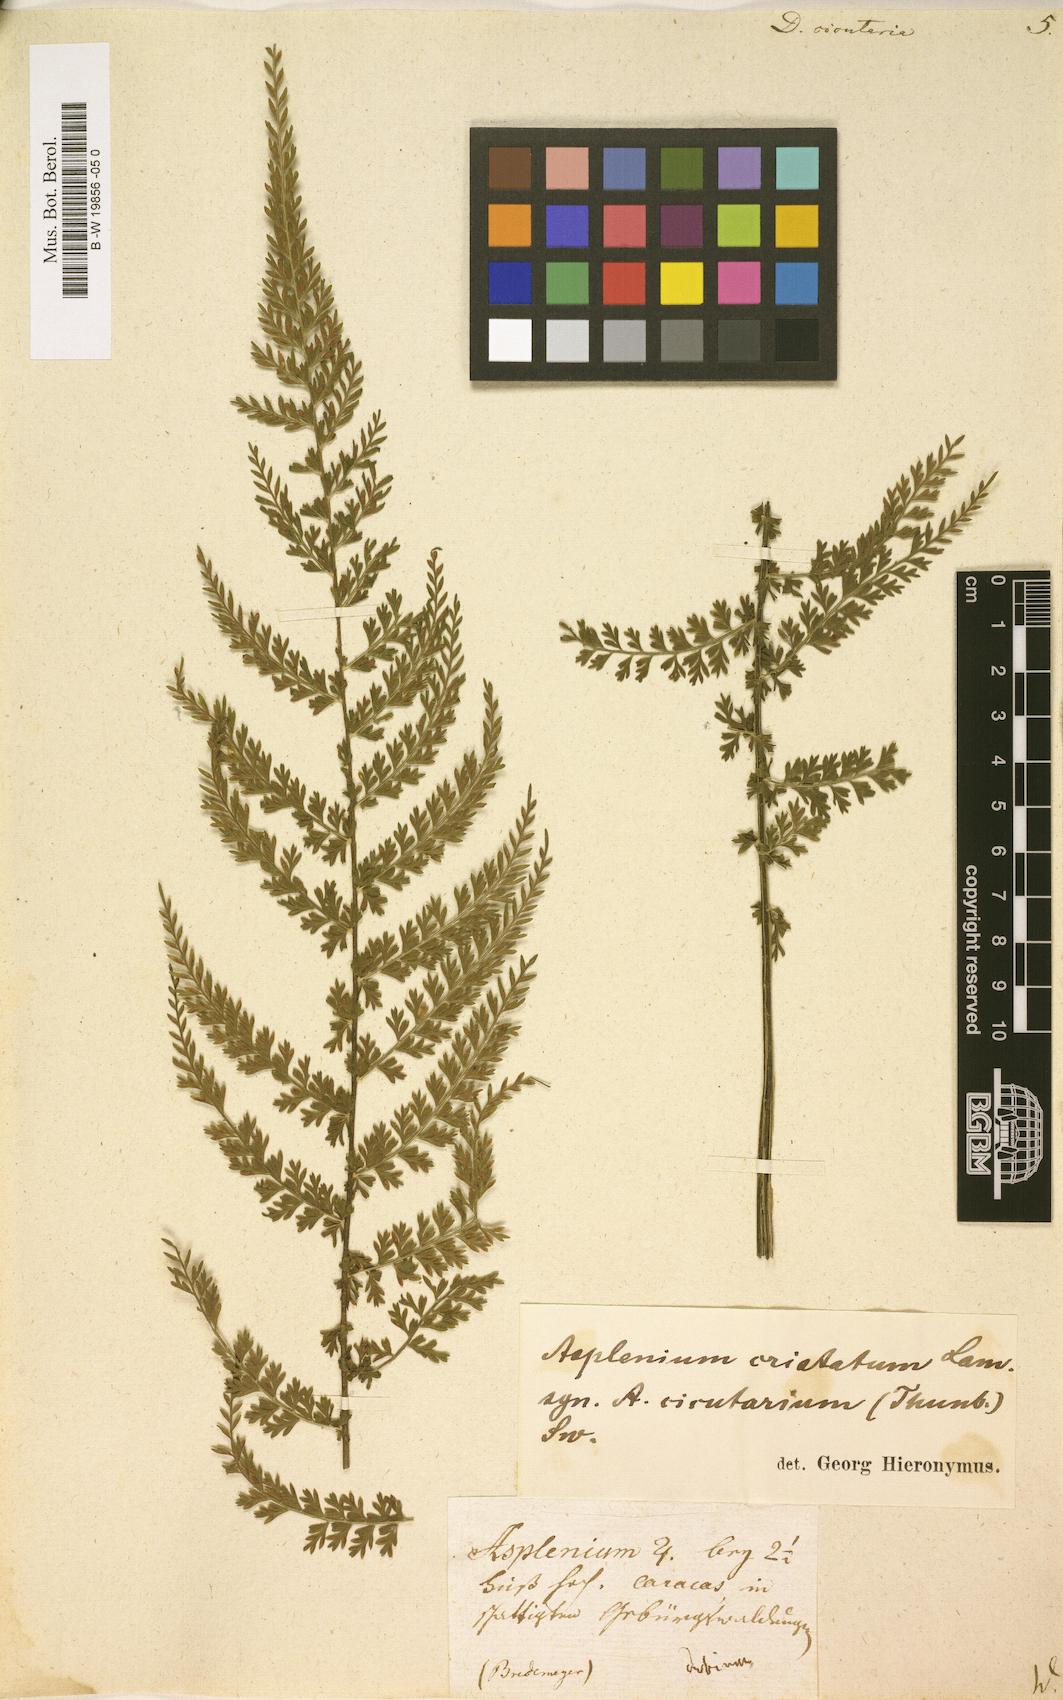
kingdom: Plantae
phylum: Tracheophyta
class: Polypodiopsida
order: Polypodiales
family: Aspleniaceae
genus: Asplenium
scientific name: Asplenium cristatum
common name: Parsley spleenwort
